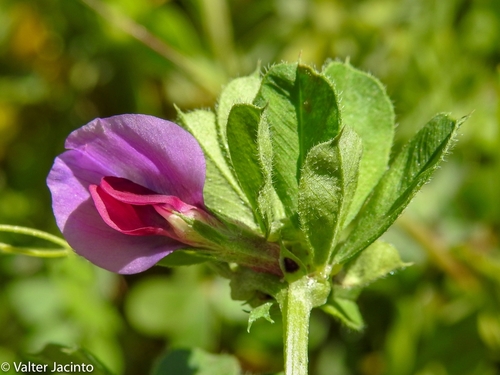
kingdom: Plantae
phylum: Tracheophyta
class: Magnoliopsida
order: Fabales
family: Fabaceae
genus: Vicia
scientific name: Vicia sativa
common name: Garden vetch
